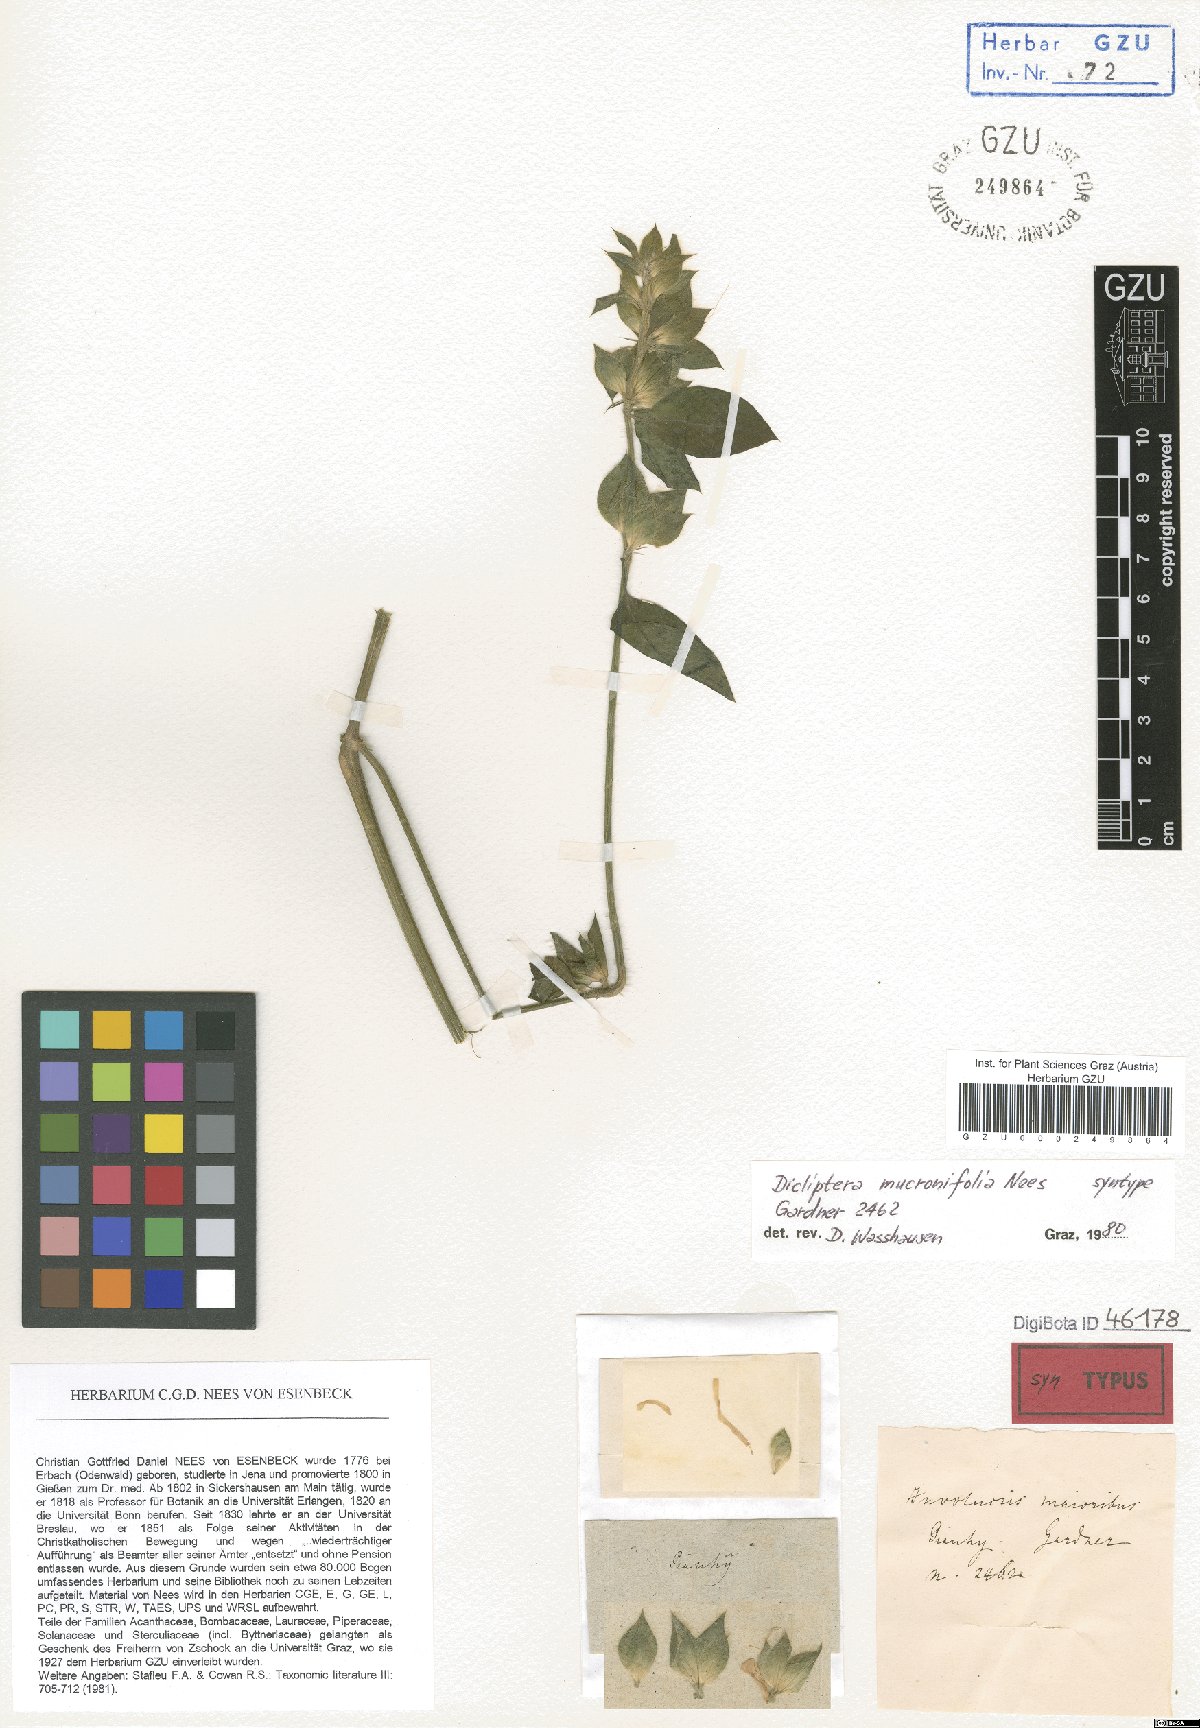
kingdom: Plantae
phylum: Tracheophyta
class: Magnoliopsida
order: Lamiales
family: Acanthaceae
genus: Dicliptera
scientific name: Dicliptera mucronifolia
